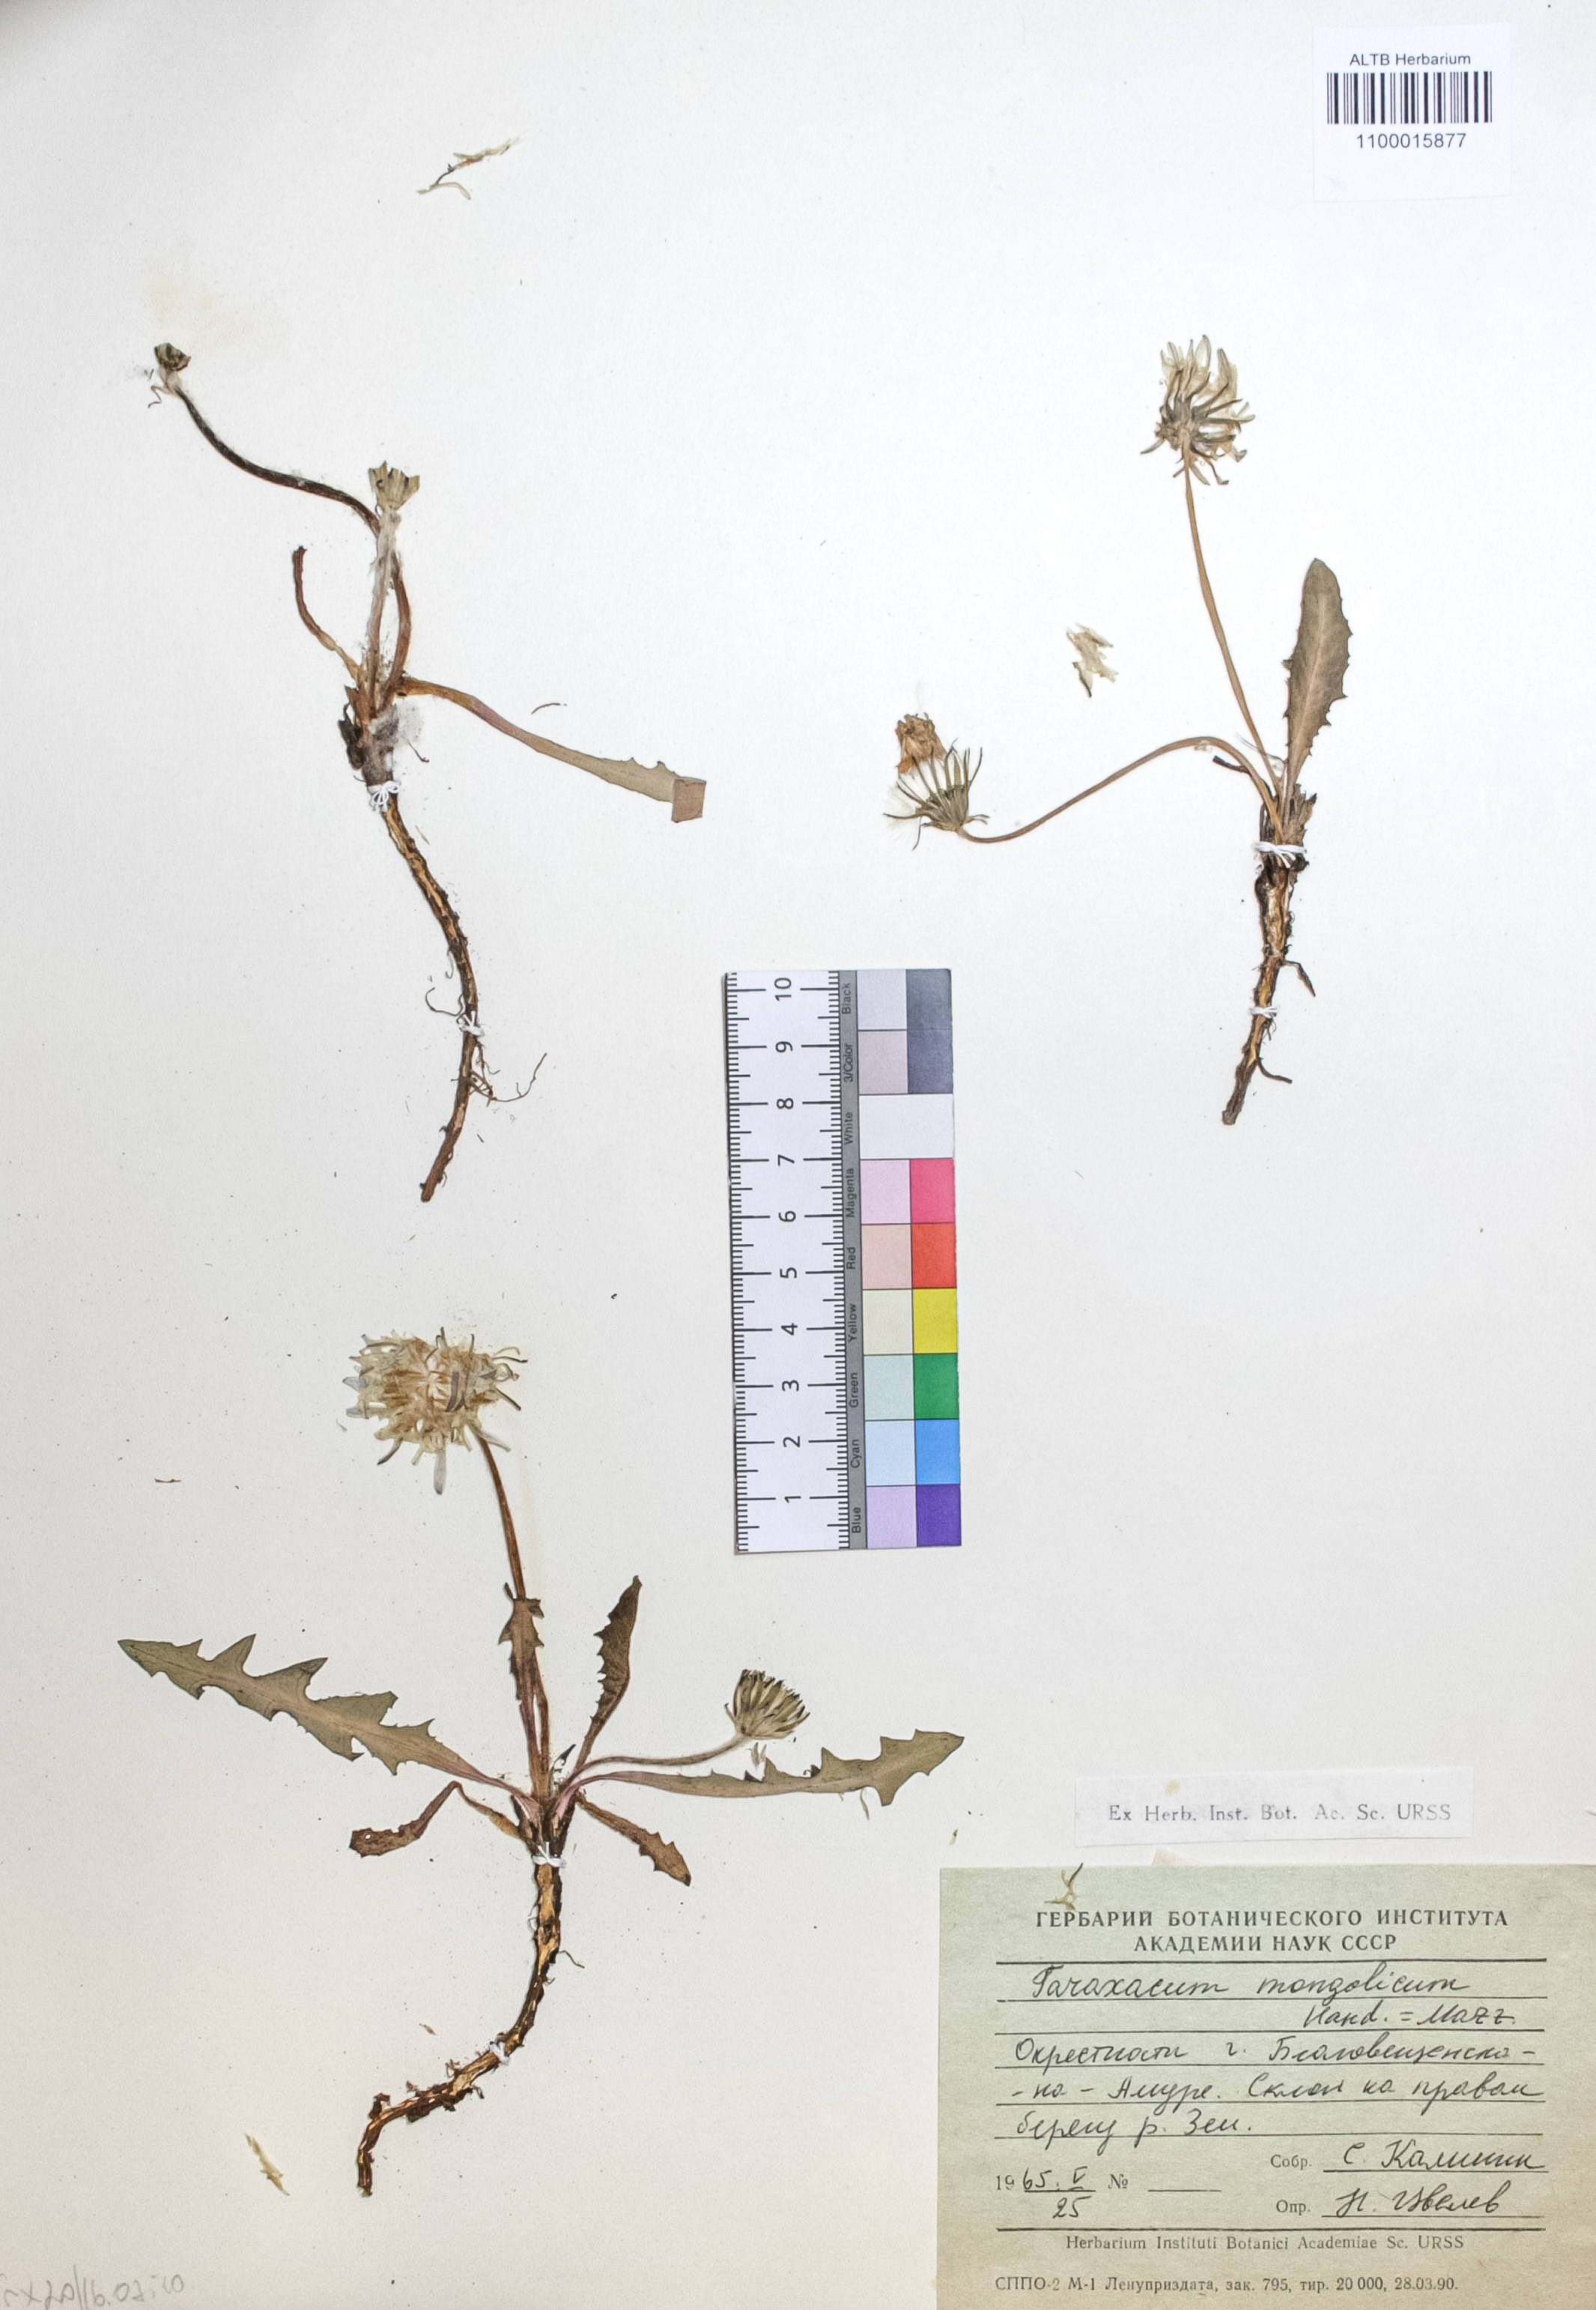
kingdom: Plantae
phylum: Tracheophyta
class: Magnoliopsida
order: Asterales
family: Asteraceae
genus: Taraxacum
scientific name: Taraxacum mongolicum
